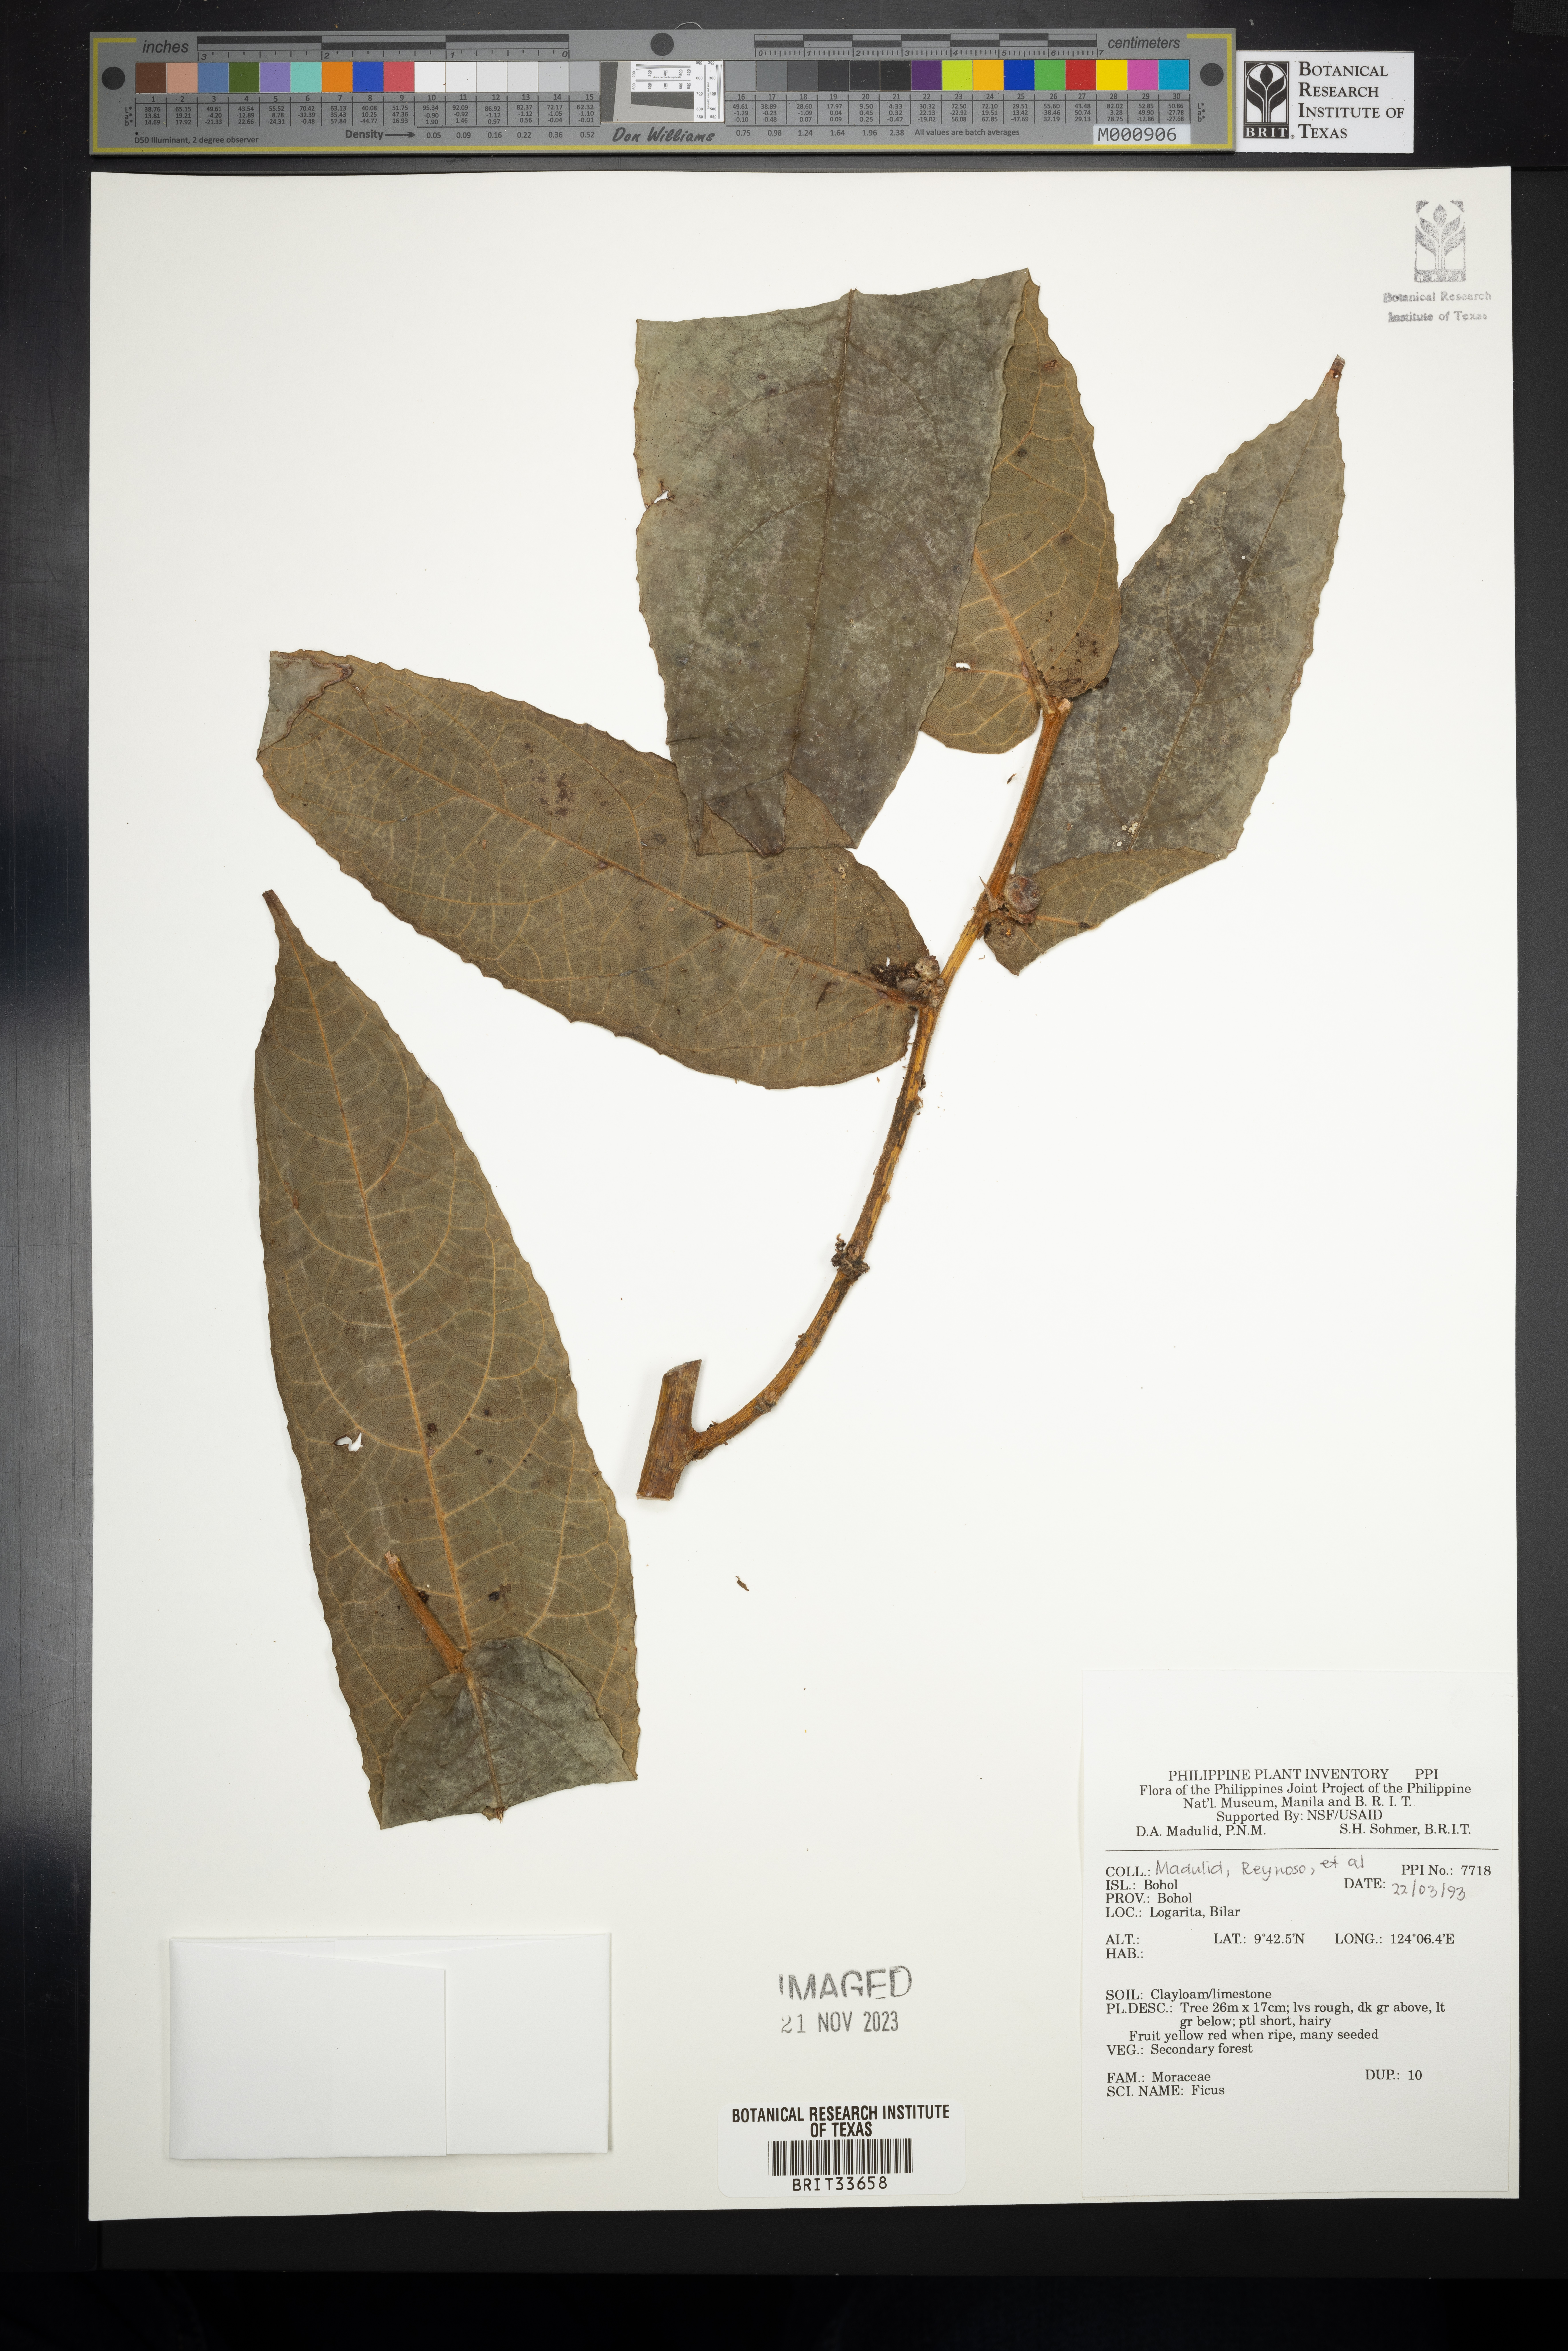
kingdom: Plantae
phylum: Tracheophyta
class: Magnoliopsida
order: Rosales
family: Moraceae
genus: Ficus
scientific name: Ficus
